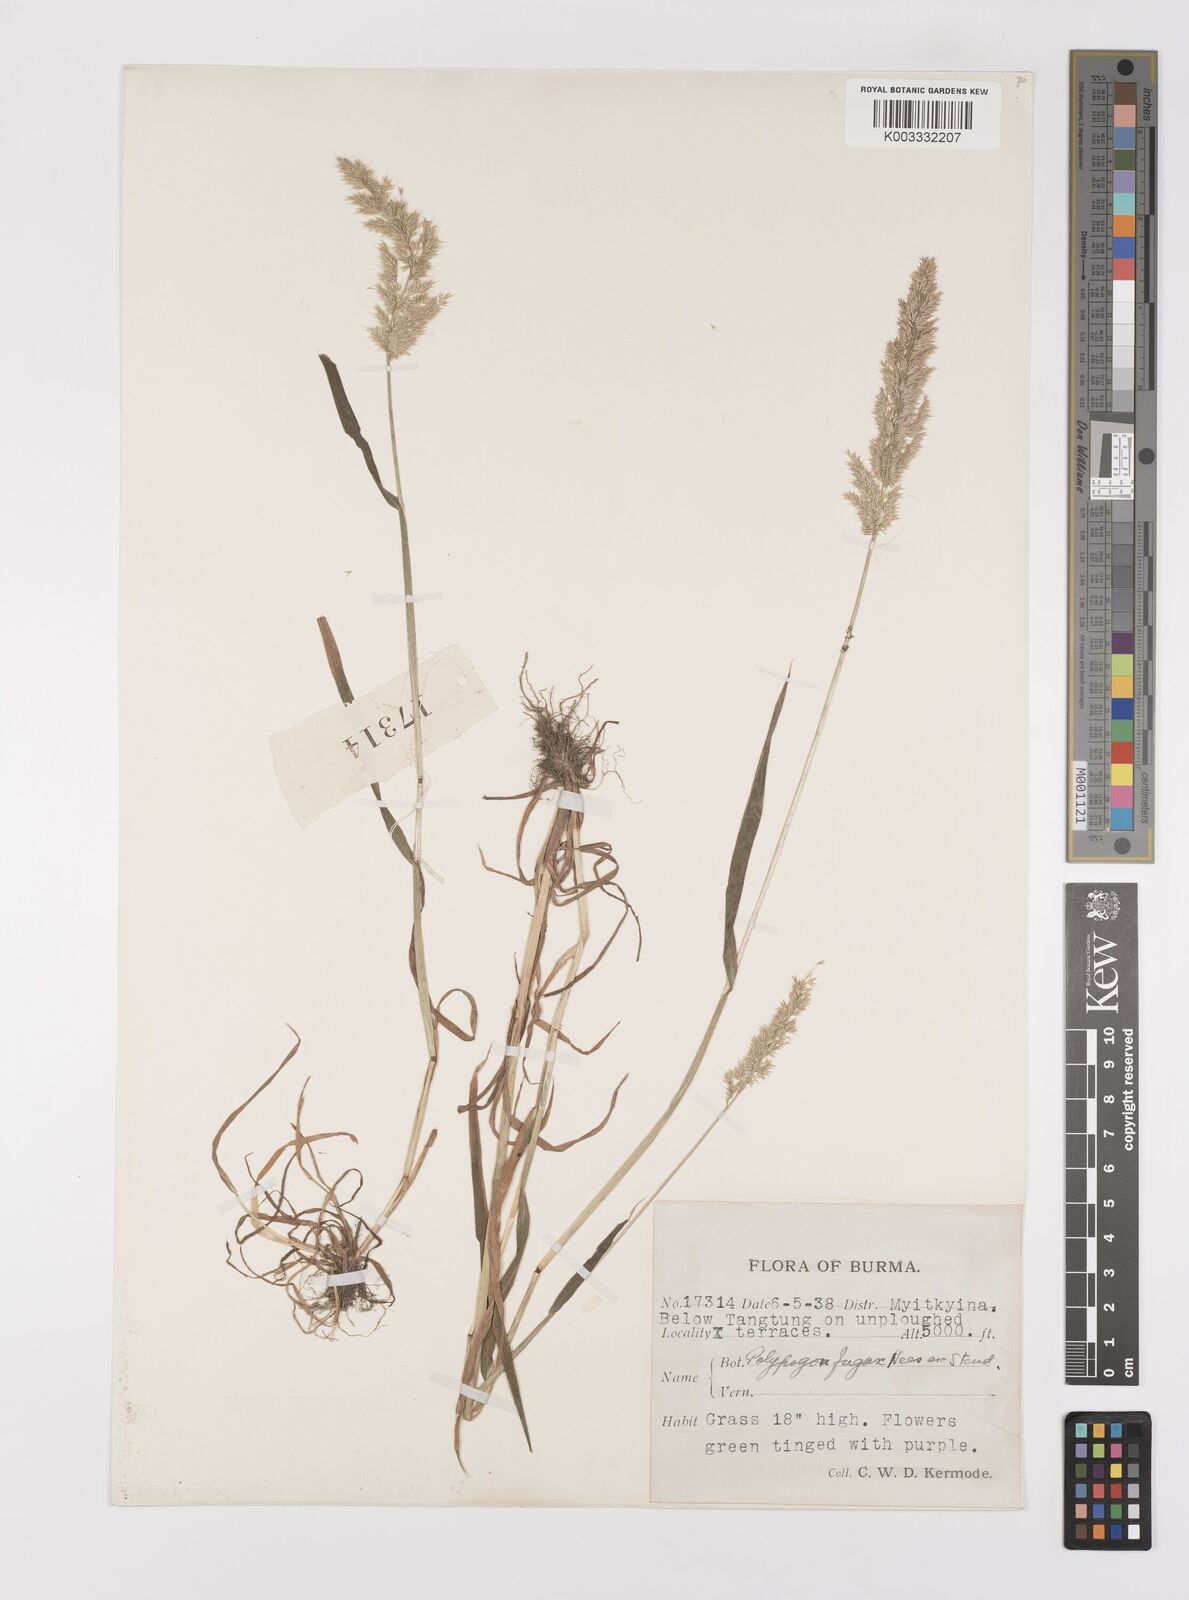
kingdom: Plantae
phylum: Tracheophyta
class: Liliopsida
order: Poales
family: Poaceae
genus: Polypogon
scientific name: Polypogon fugax
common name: Asia minor bluegrass
